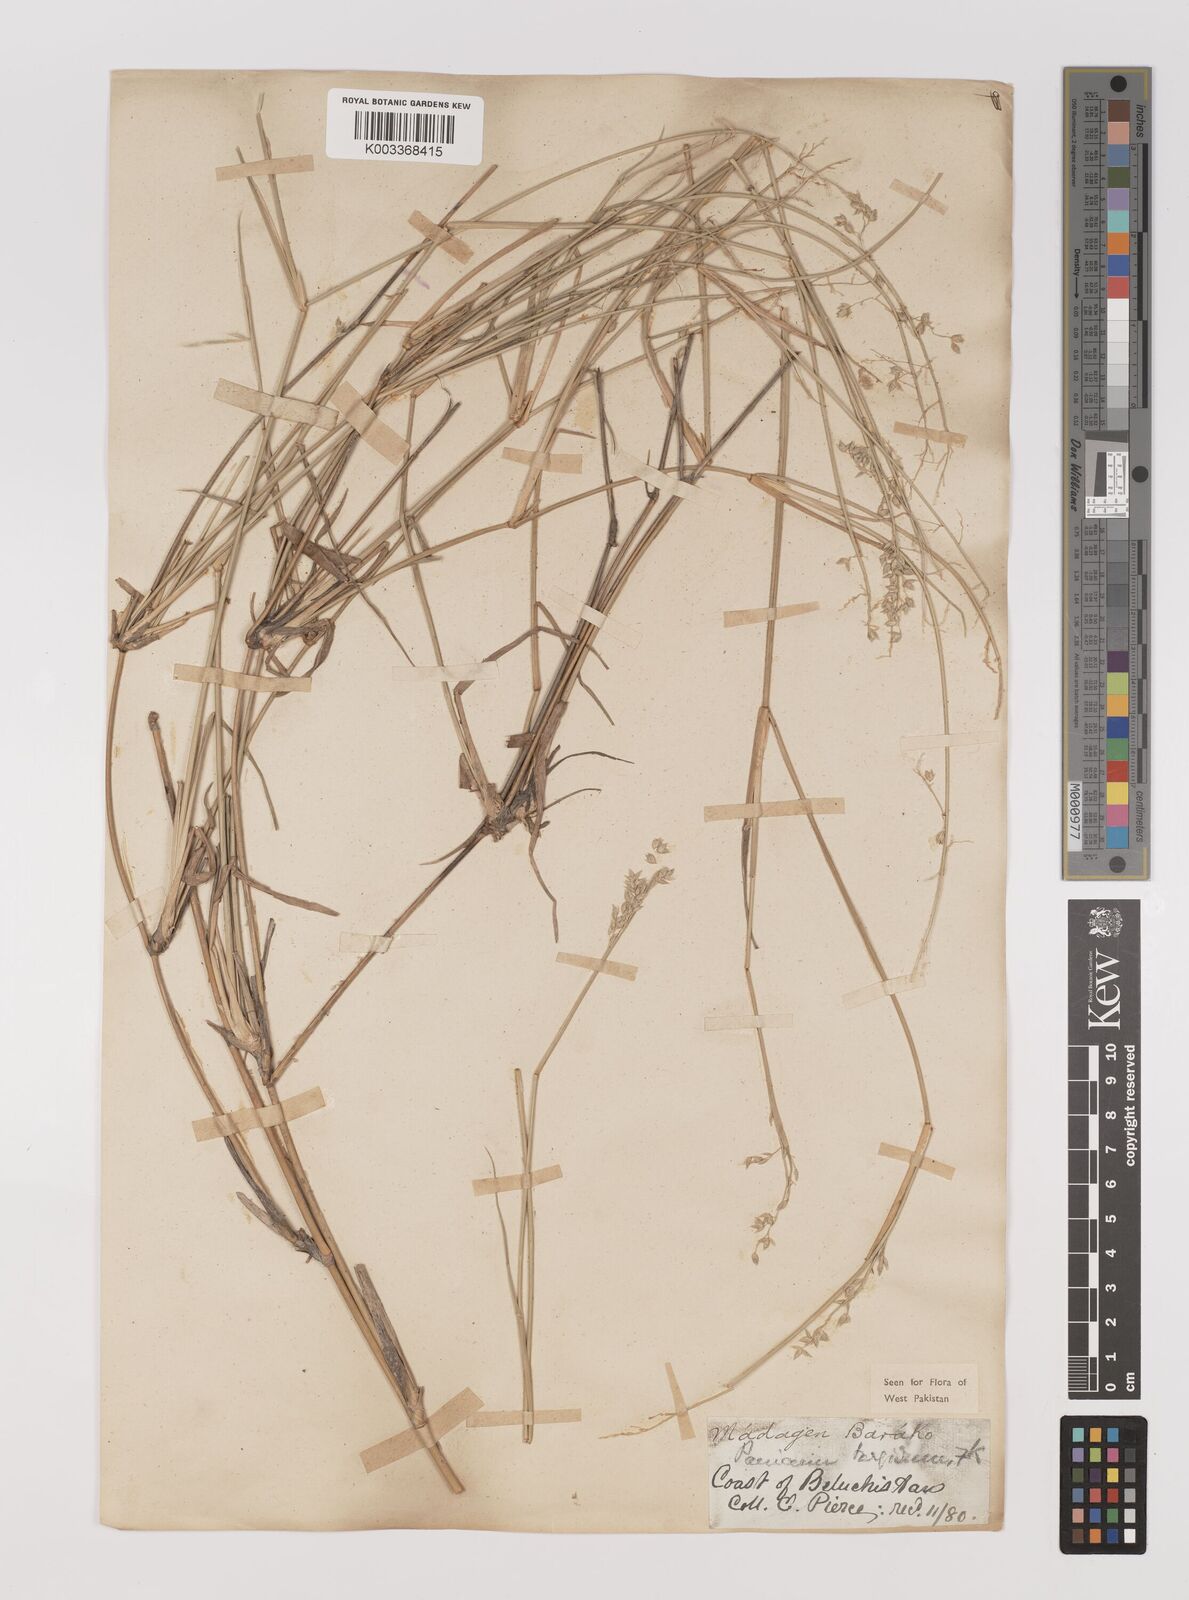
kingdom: Plantae
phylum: Tracheophyta
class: Liliopsida
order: Poales
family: Poaceae
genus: Panicum
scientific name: Panicum turgidum
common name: Desert grass
